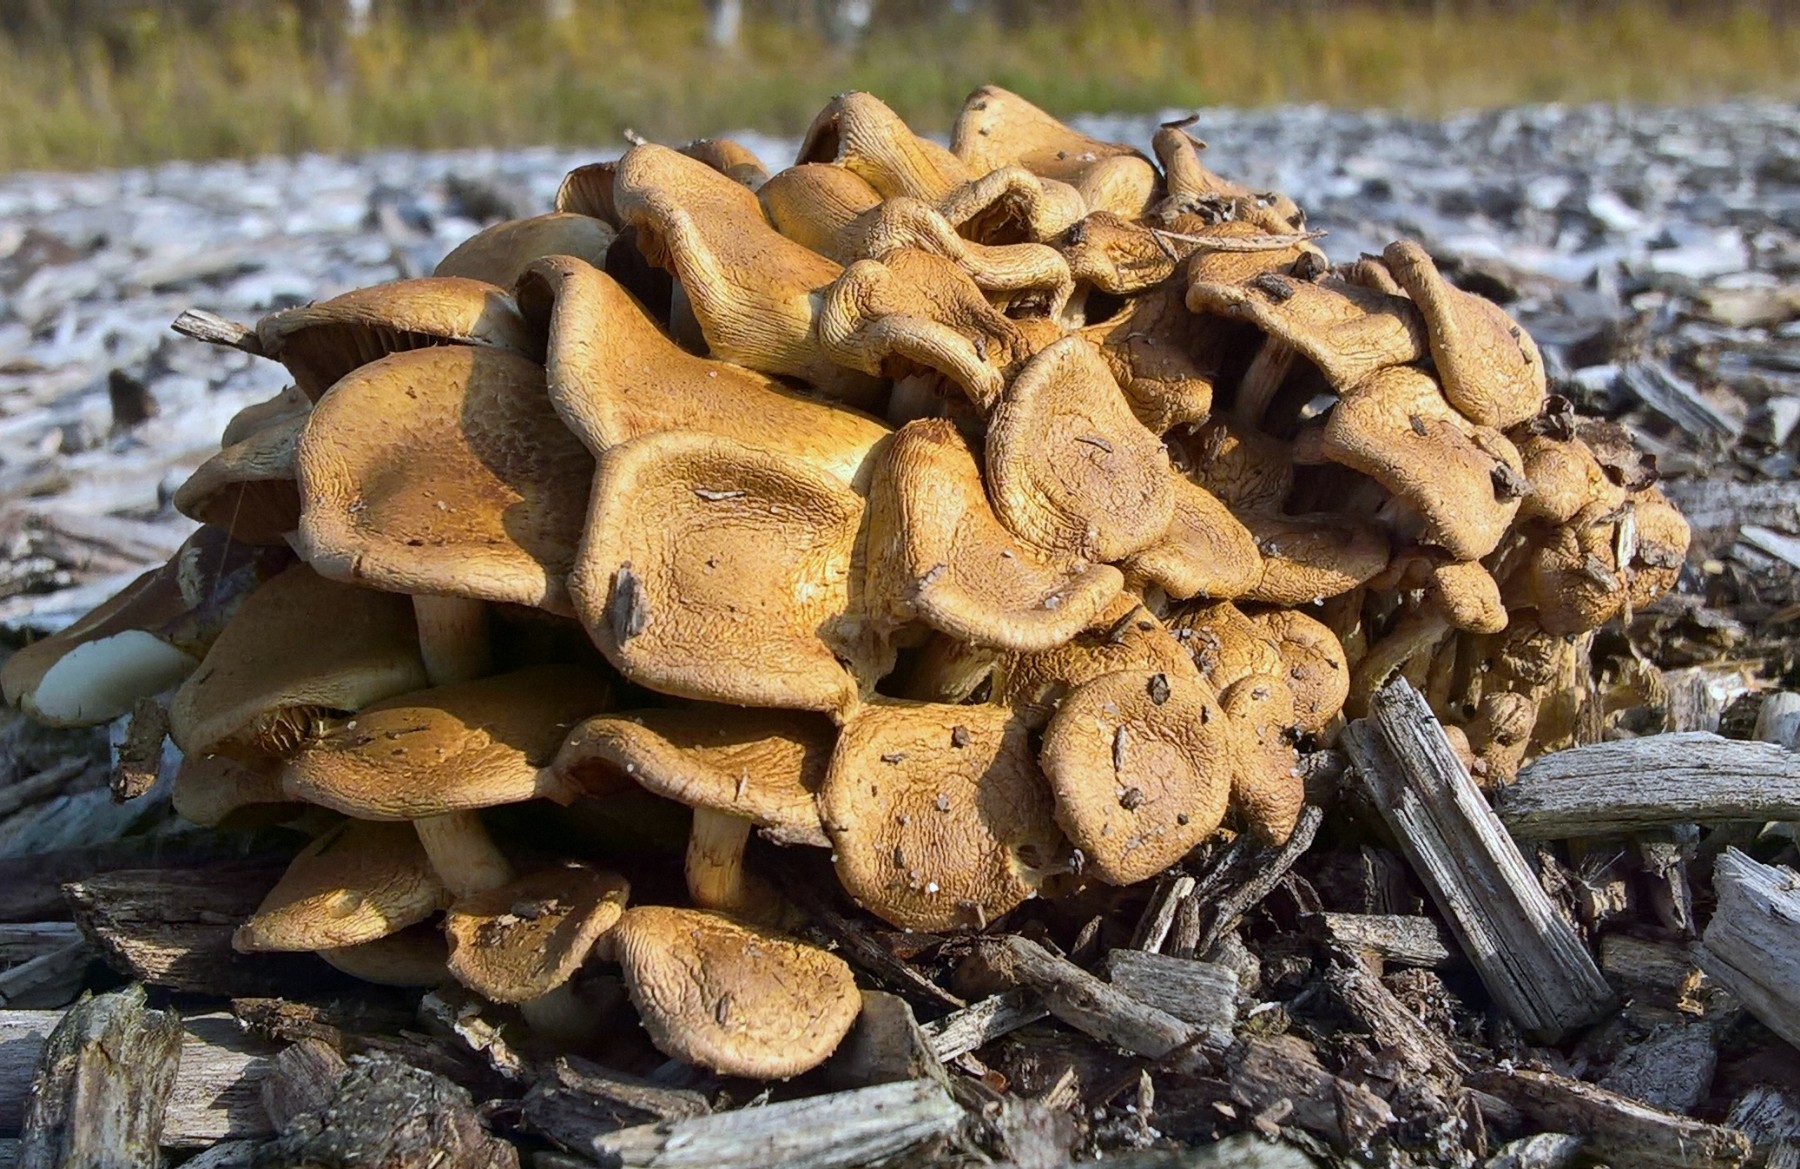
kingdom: Fungi
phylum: Basidiomycota
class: Agaricomycetes
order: Agaricales
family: Strophariaceae
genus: Pholiota
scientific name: Pholiota gummosa
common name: grøngul skælhat
